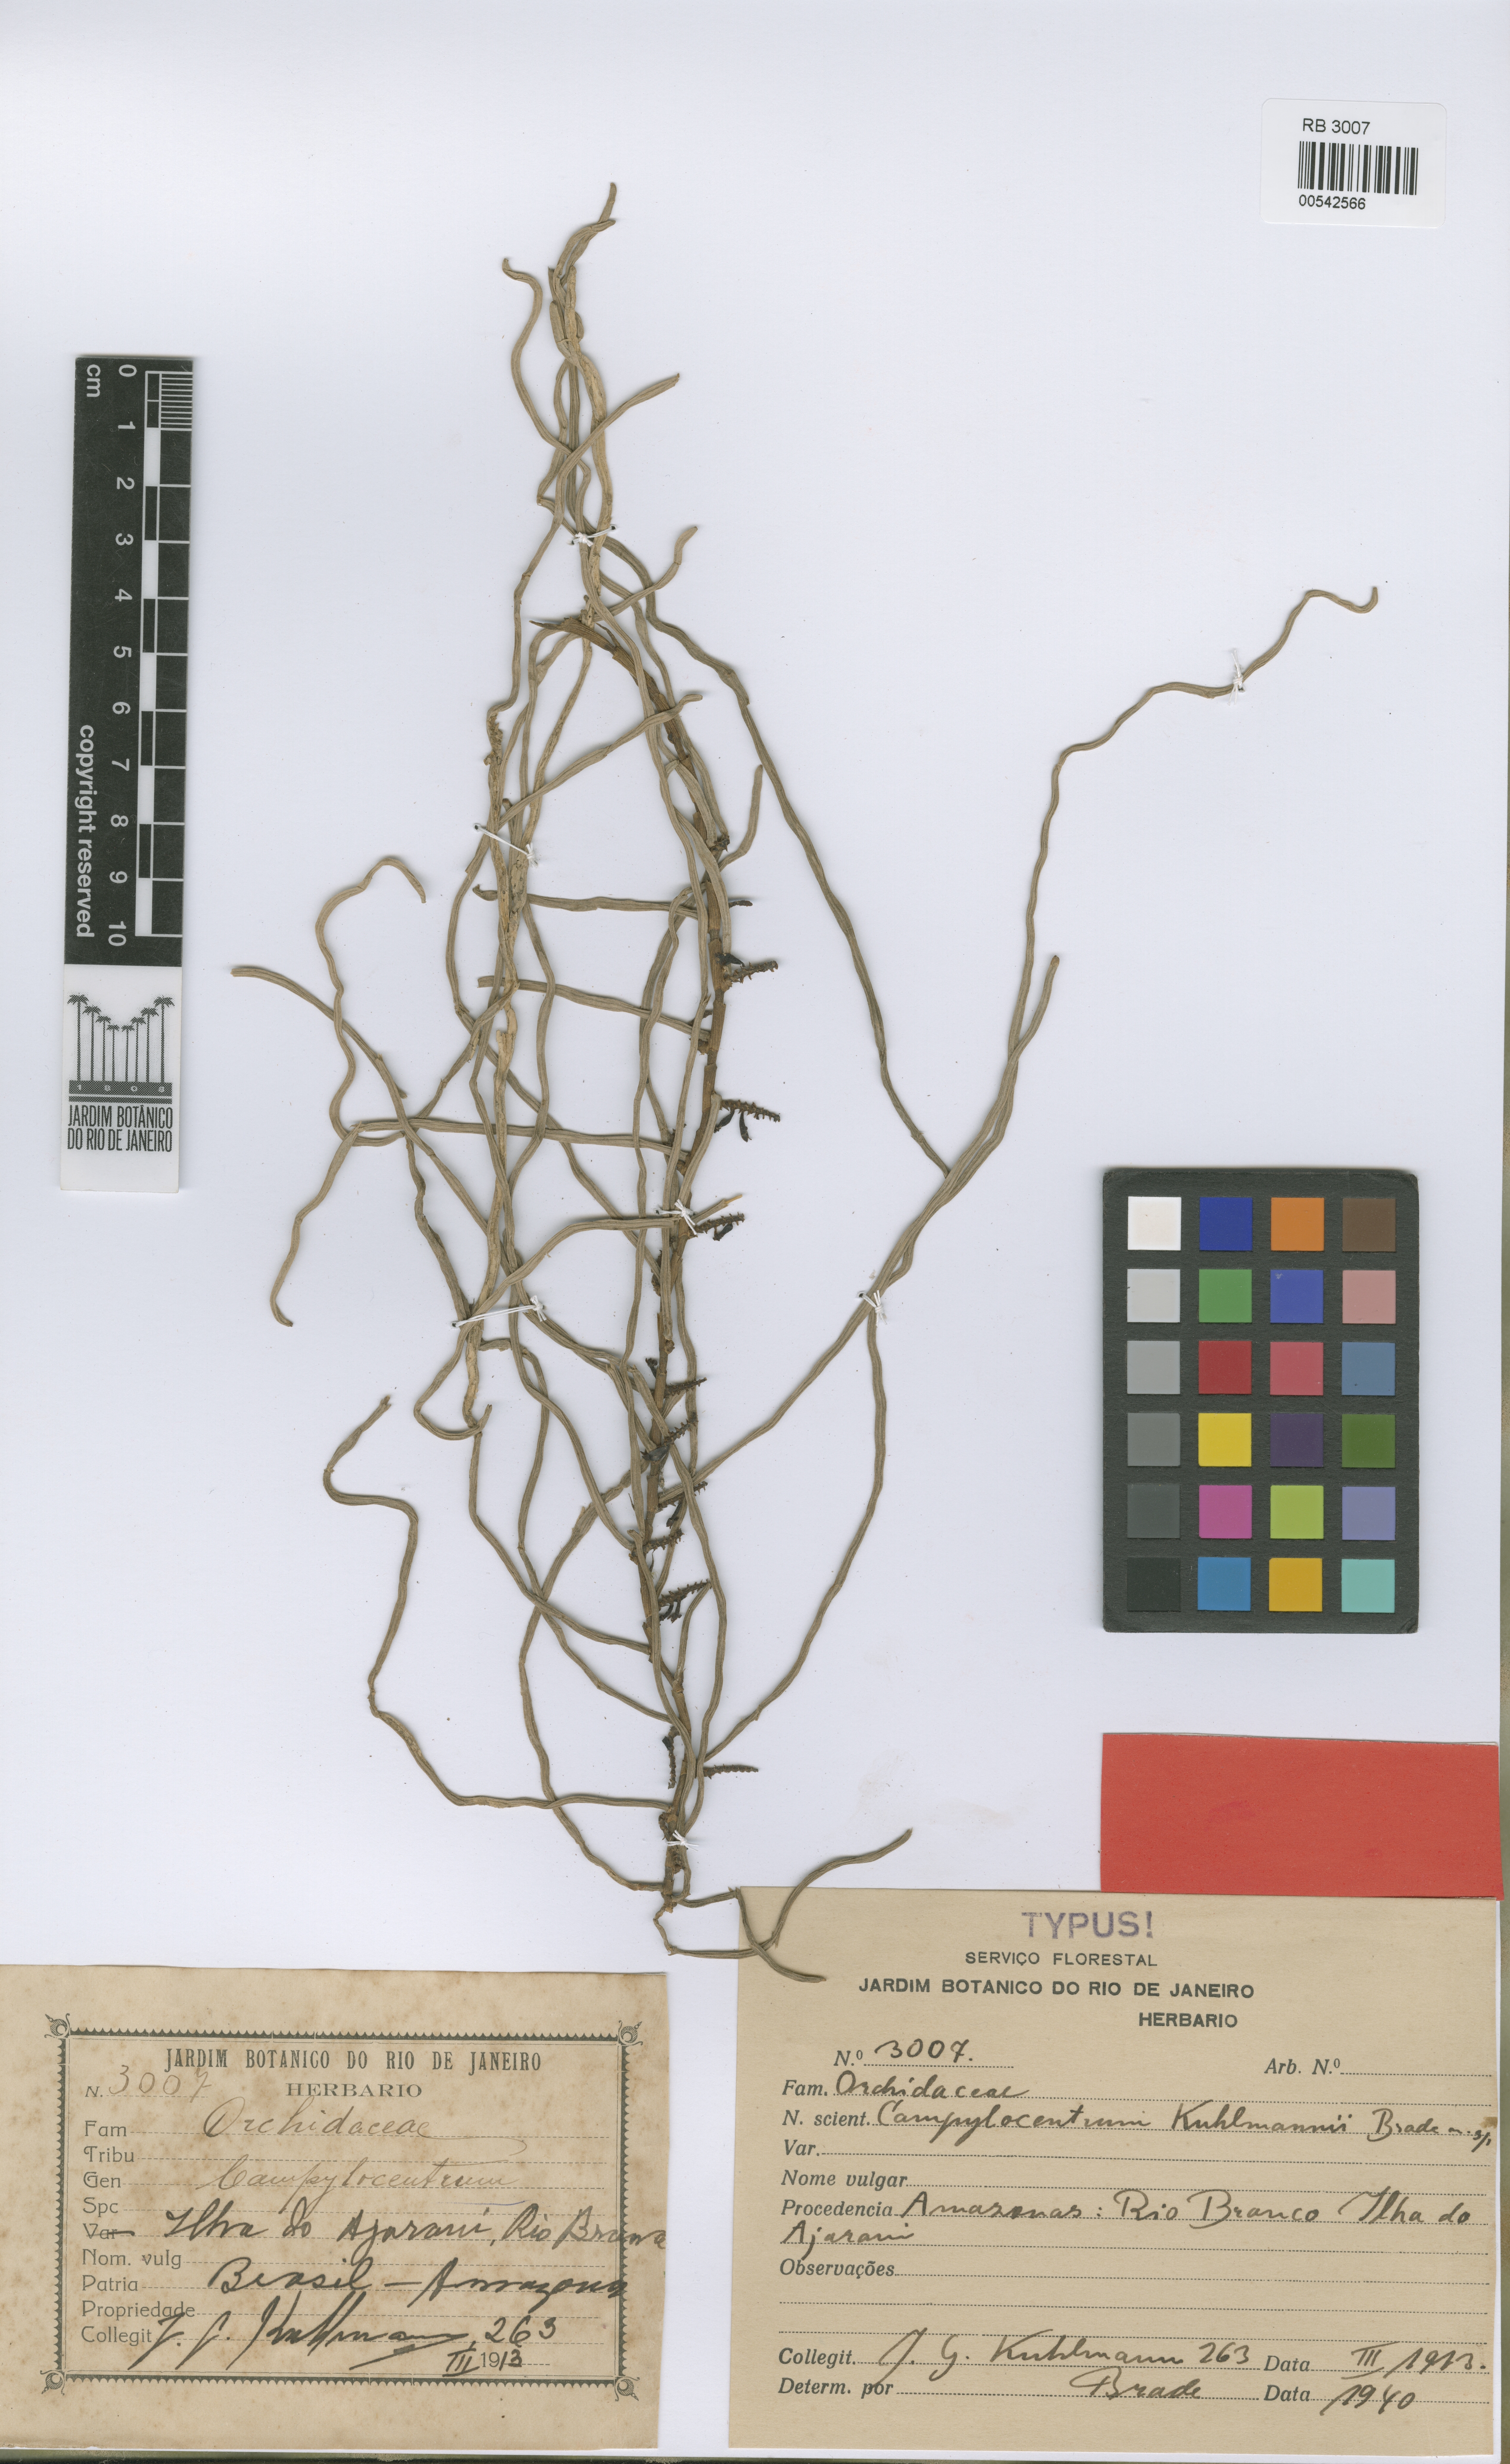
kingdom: Plantae
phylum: Tracheophyta
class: Liliopsida
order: Asparagales
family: Orchidaceae
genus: Campylocentrum
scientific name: Campylocentrum poeppigii
